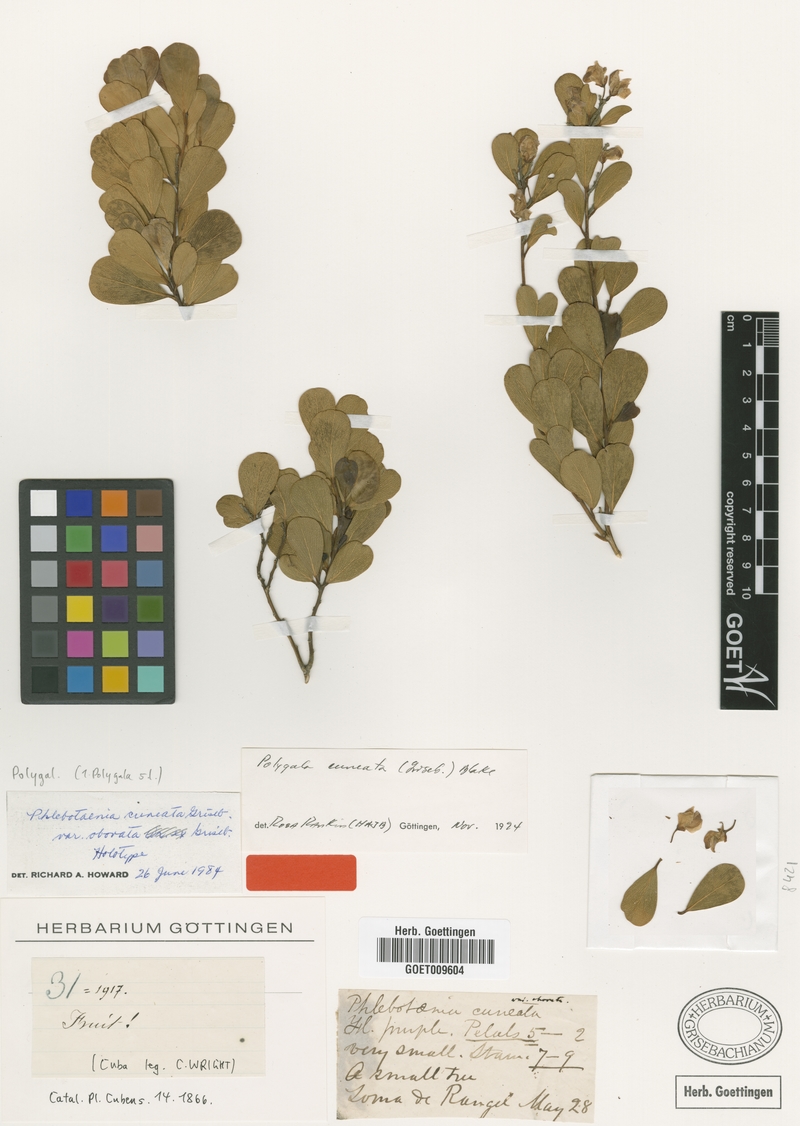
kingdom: Plantae
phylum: Tracheophyta
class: Magnoliopsida
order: Fabales
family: Polygalaceae
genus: Phlebotaenia
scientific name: Phlebotaenia cuneata
